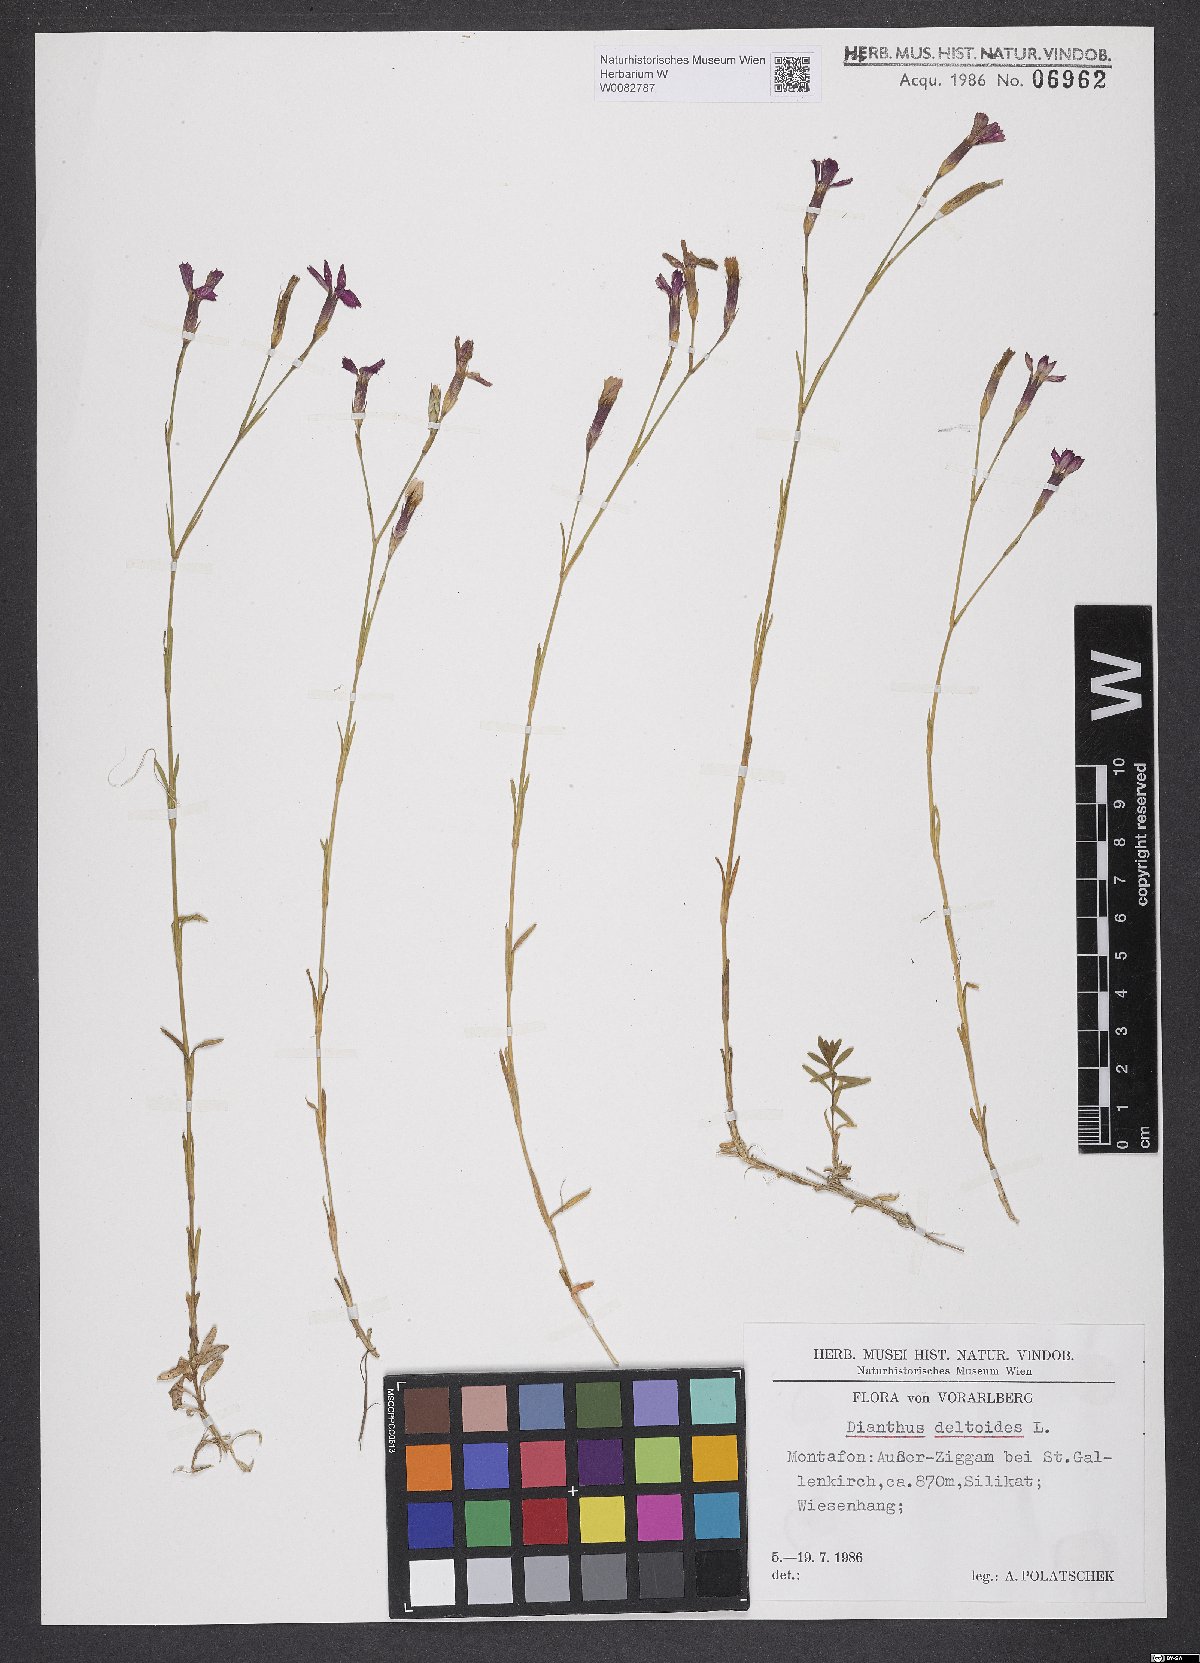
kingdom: Plantae
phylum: Tracheophyta
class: Magnoliopsida
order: Caryophyllales
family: Caryophyllaceae
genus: Dianthus
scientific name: Dianthus deltoides
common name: Maiden pink
